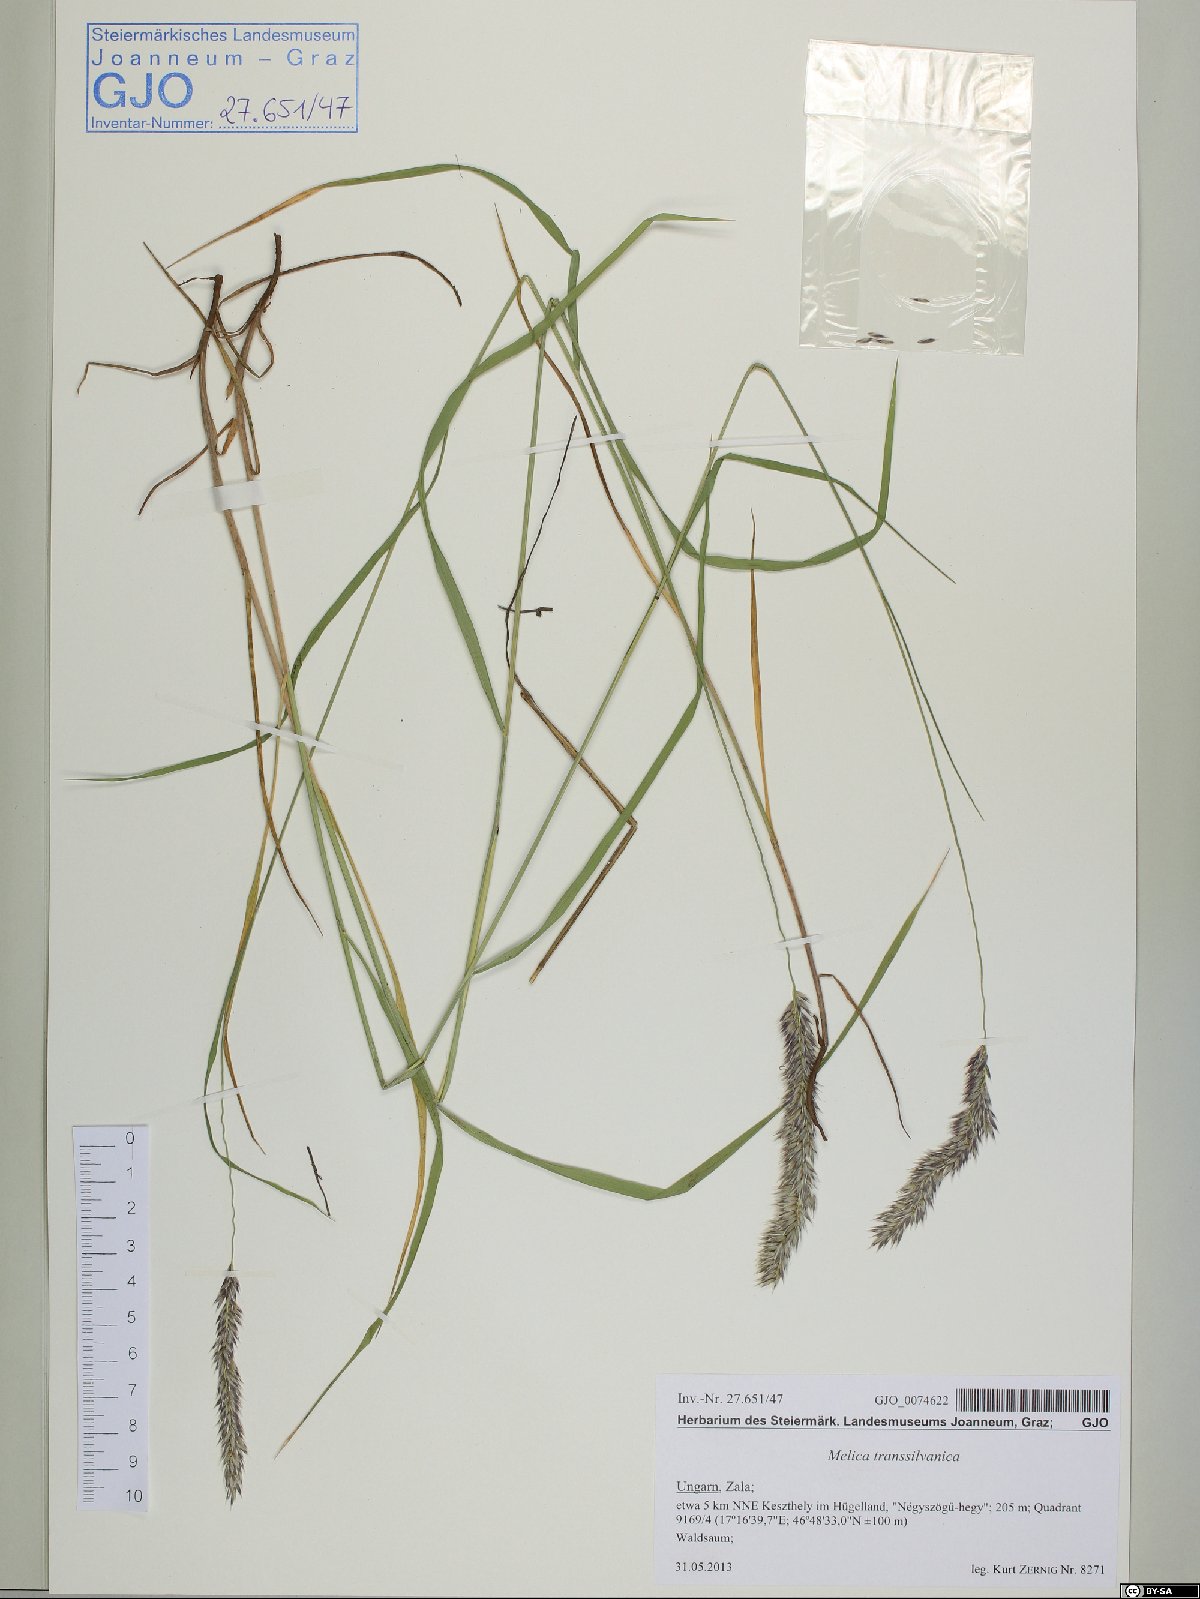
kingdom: Plantae
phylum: Tracheophyta
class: Liliopsida
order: Poales
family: Poaceae
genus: Melica
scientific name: Melica transsilvanica
